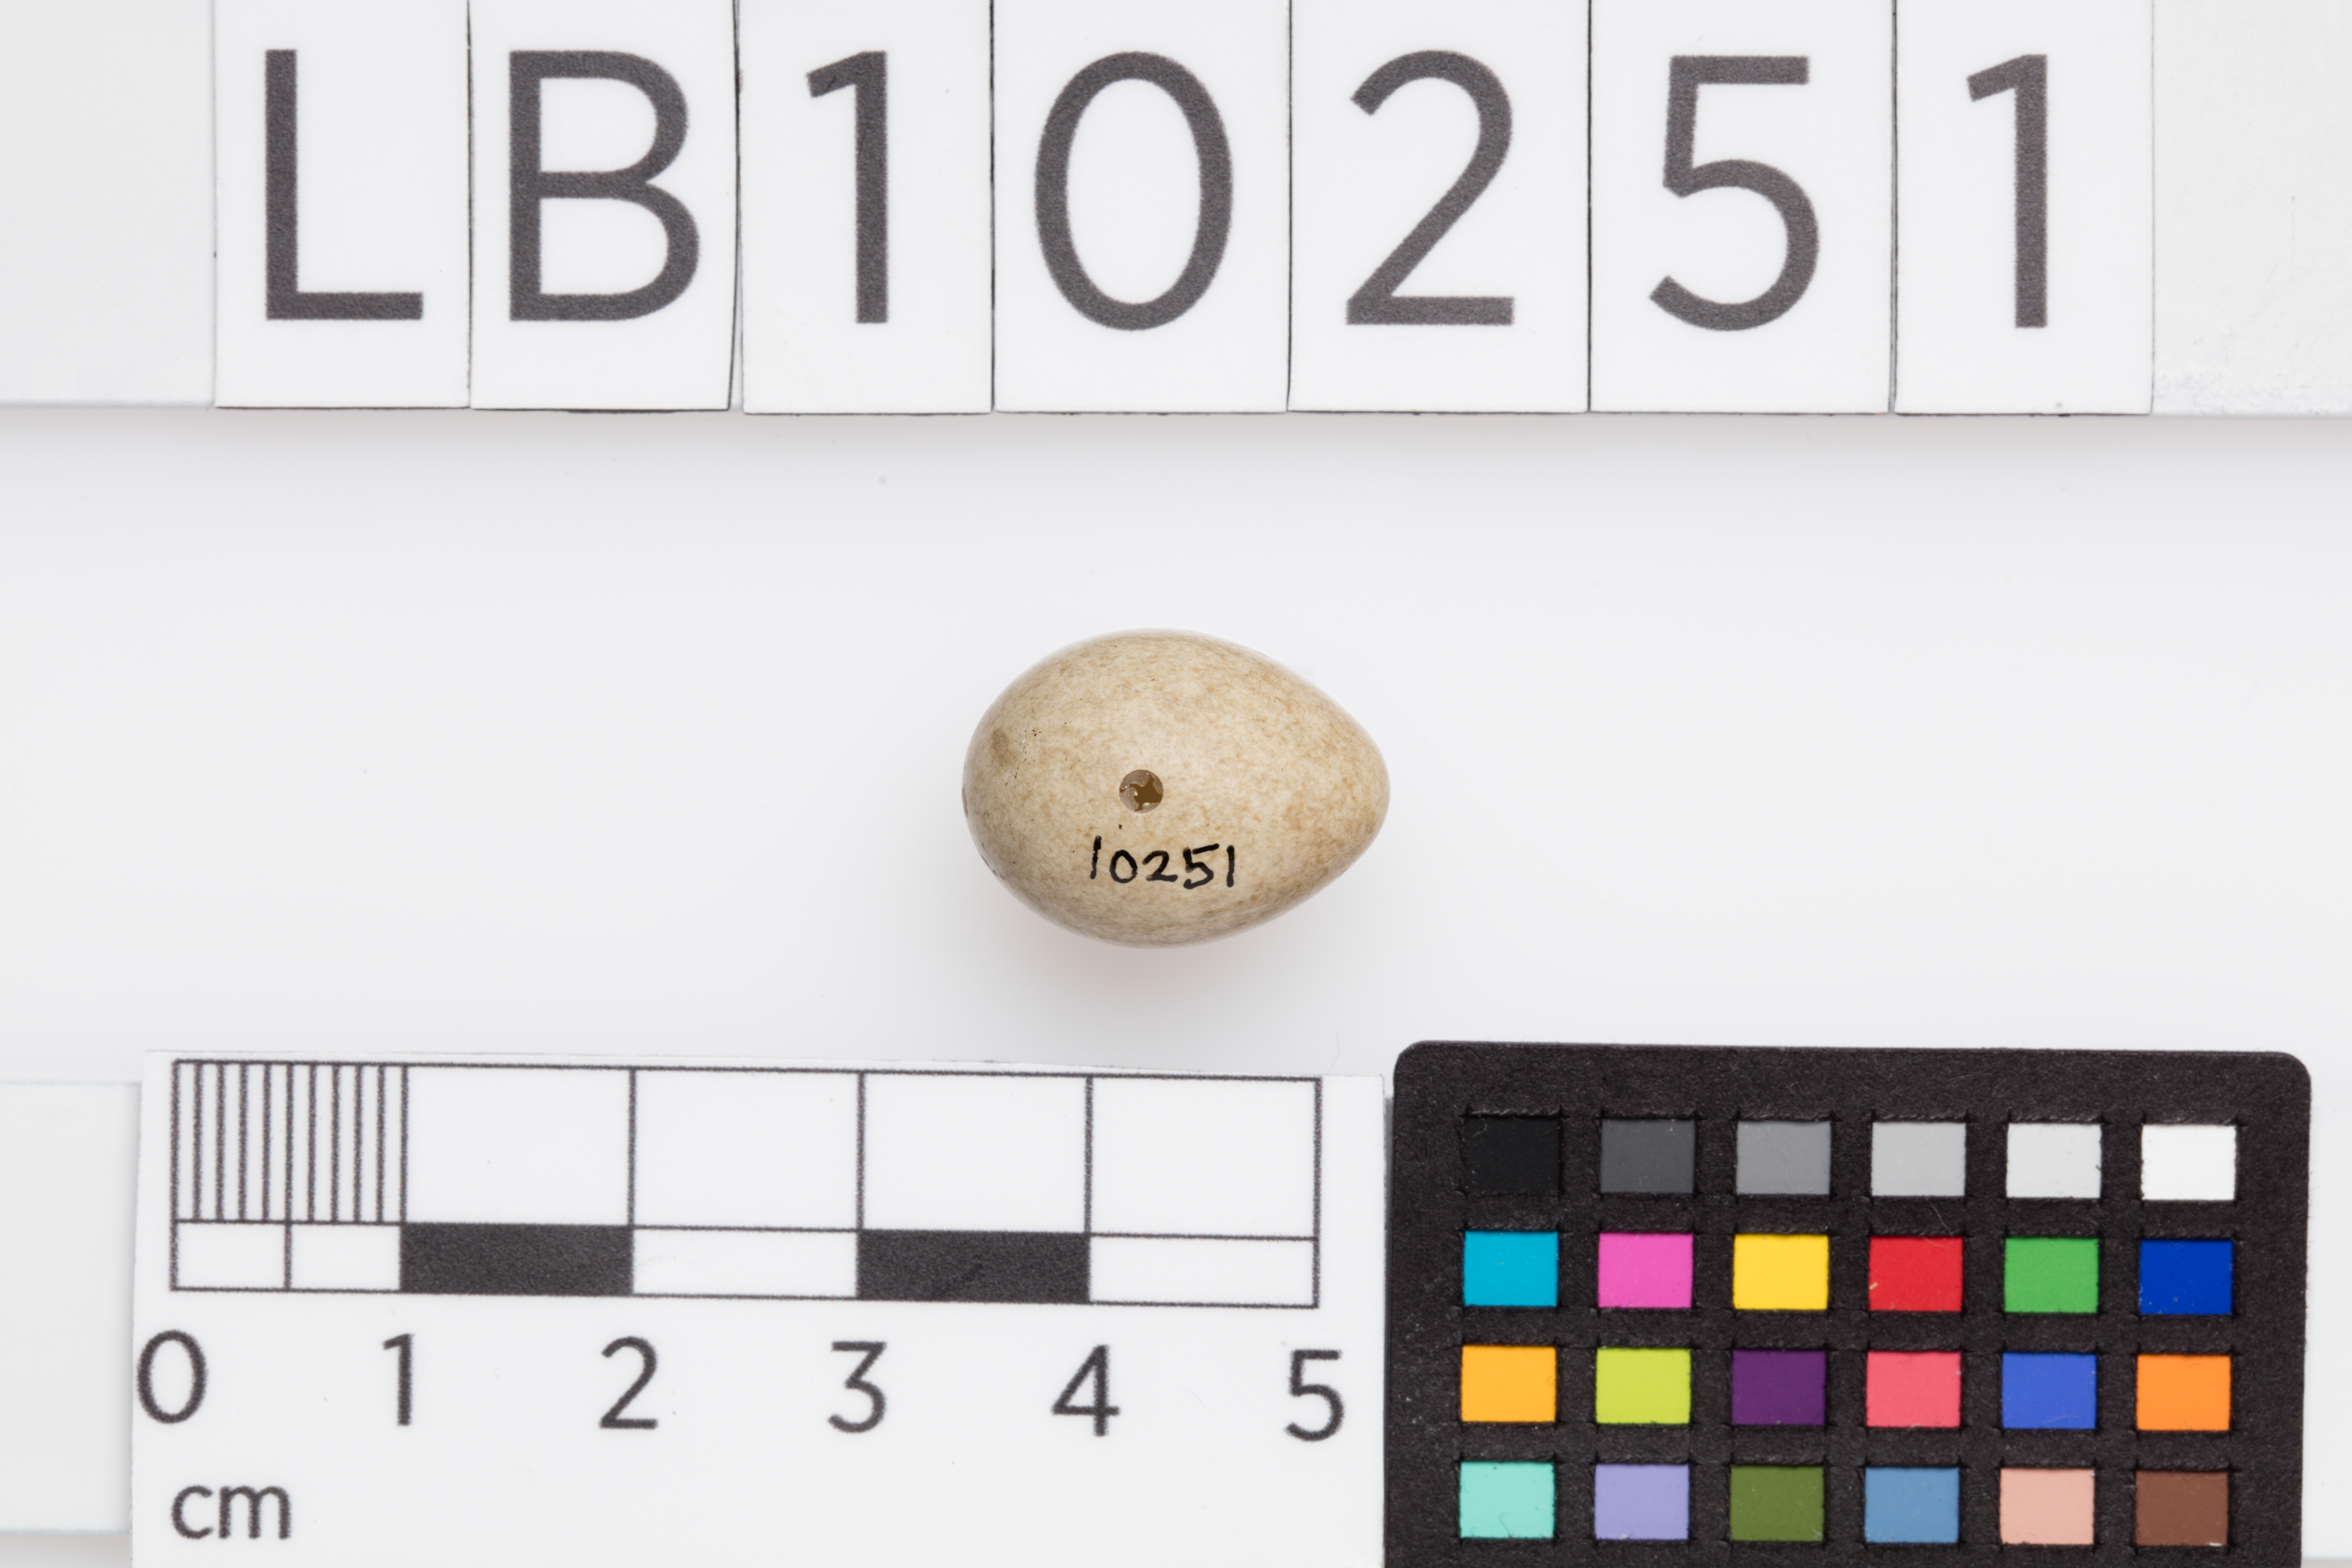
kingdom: Animalia
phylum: Chordata
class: Aves
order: Passeriformes
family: Acrocephalidae
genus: Acrocephalus
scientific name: Acrocephalus schoenobaenus
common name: Sedge warbler
